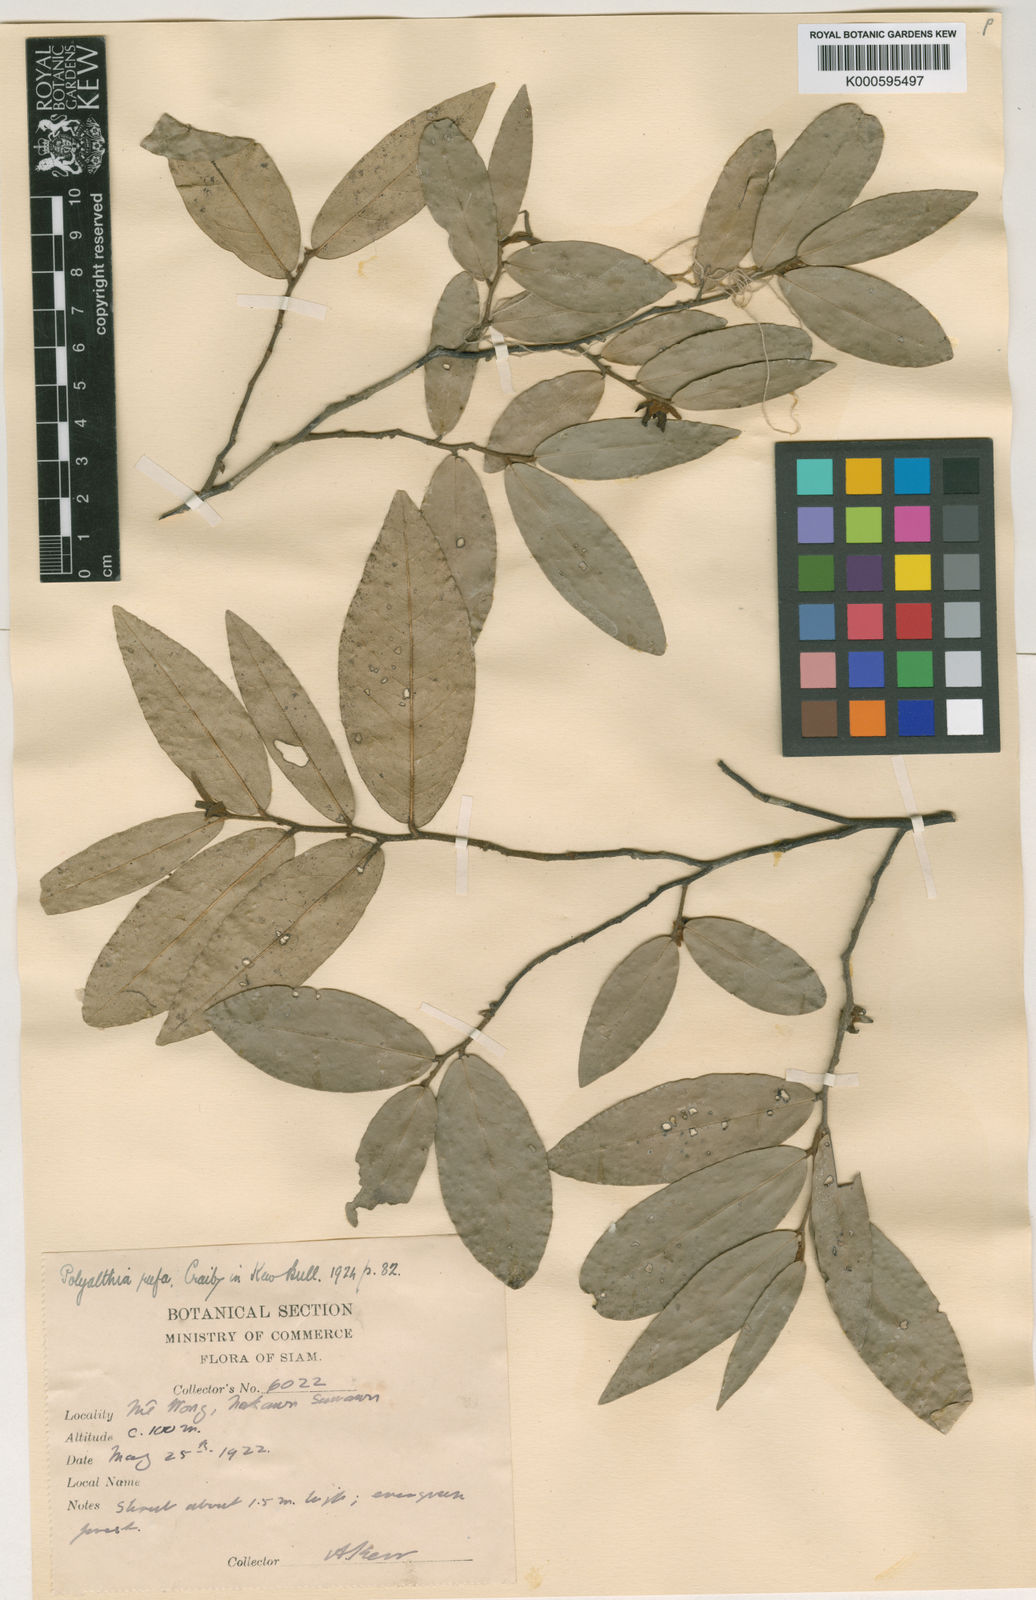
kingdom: Plantae
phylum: Tracheophyta
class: Magnoliopsida
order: Magnoliales
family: Annonaceae
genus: Polyalthia
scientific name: Polyalthia parviflora
